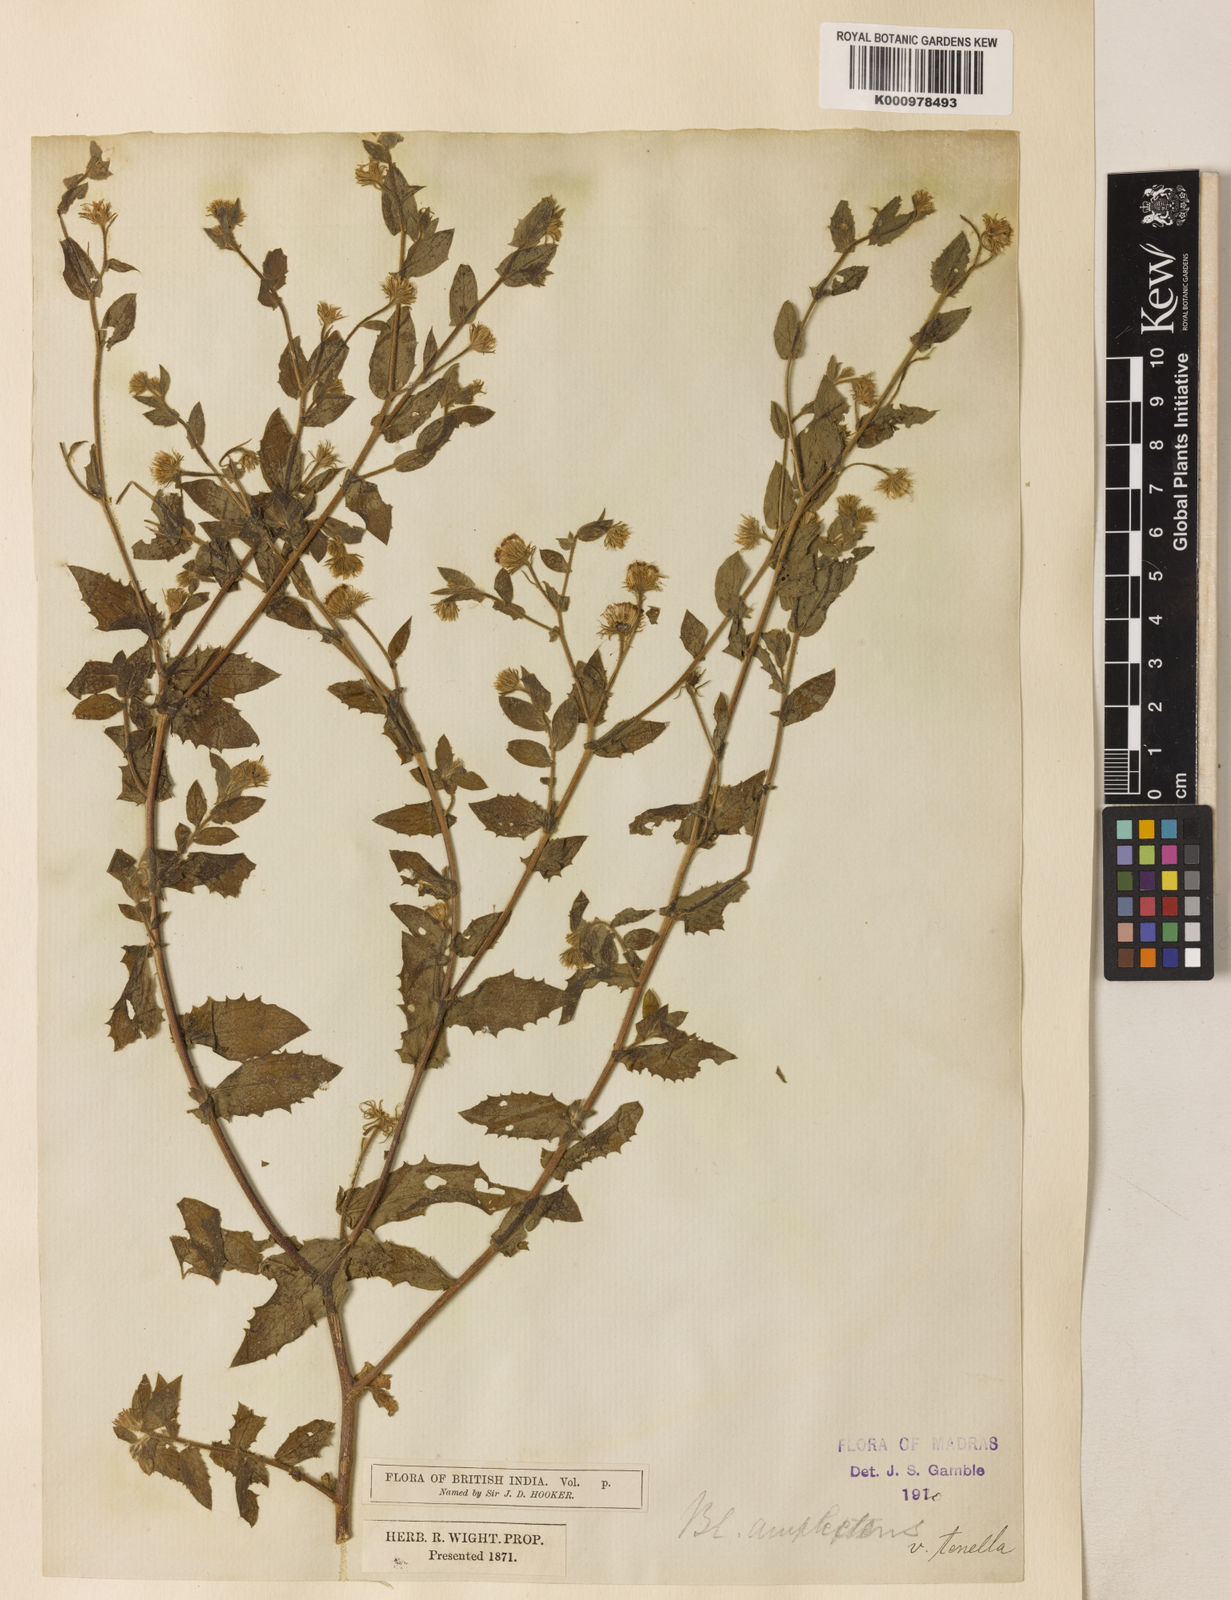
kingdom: Plantae
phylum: Tracheophyta
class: Magnoliopsida
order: Asterales
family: Asteraceae
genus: Blumea
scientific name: Blumea obliqua
